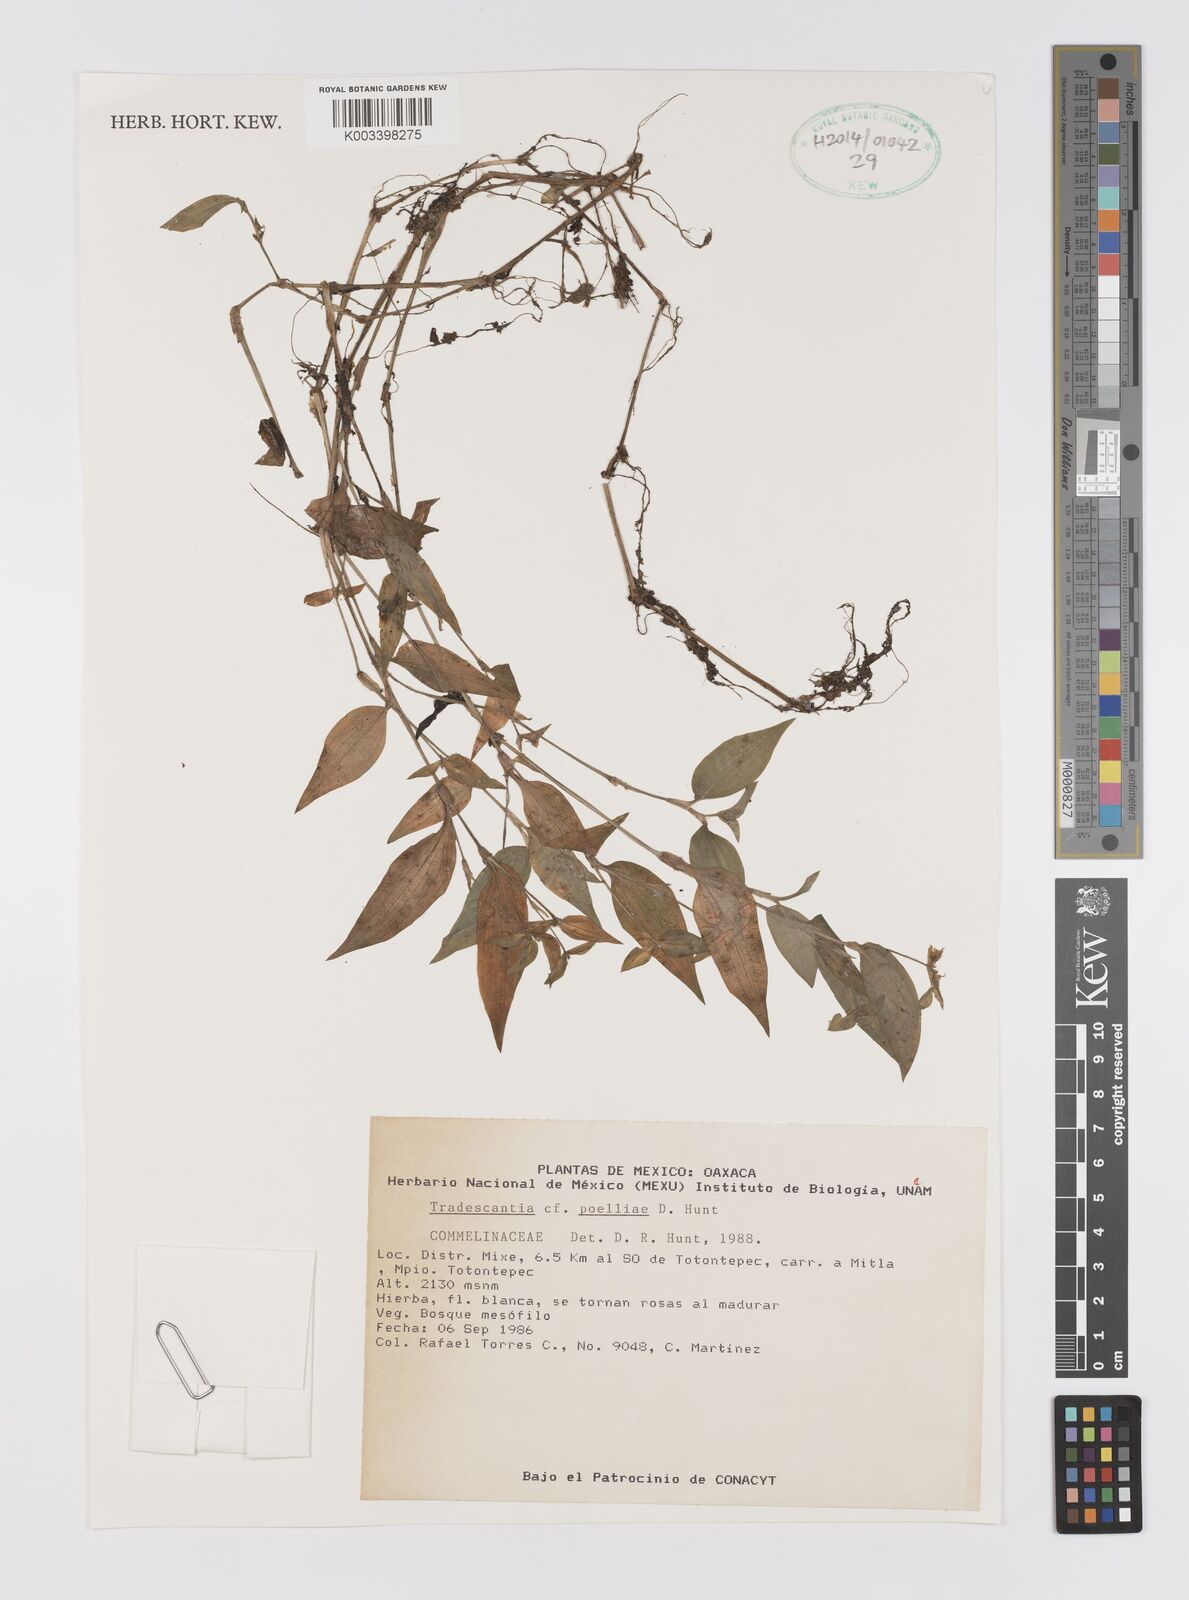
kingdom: Plantae
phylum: Tracheophyta
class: Liliopsida
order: Commelinales
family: Commelinaceae
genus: Tradescantia
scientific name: Tradescantia poelliae
